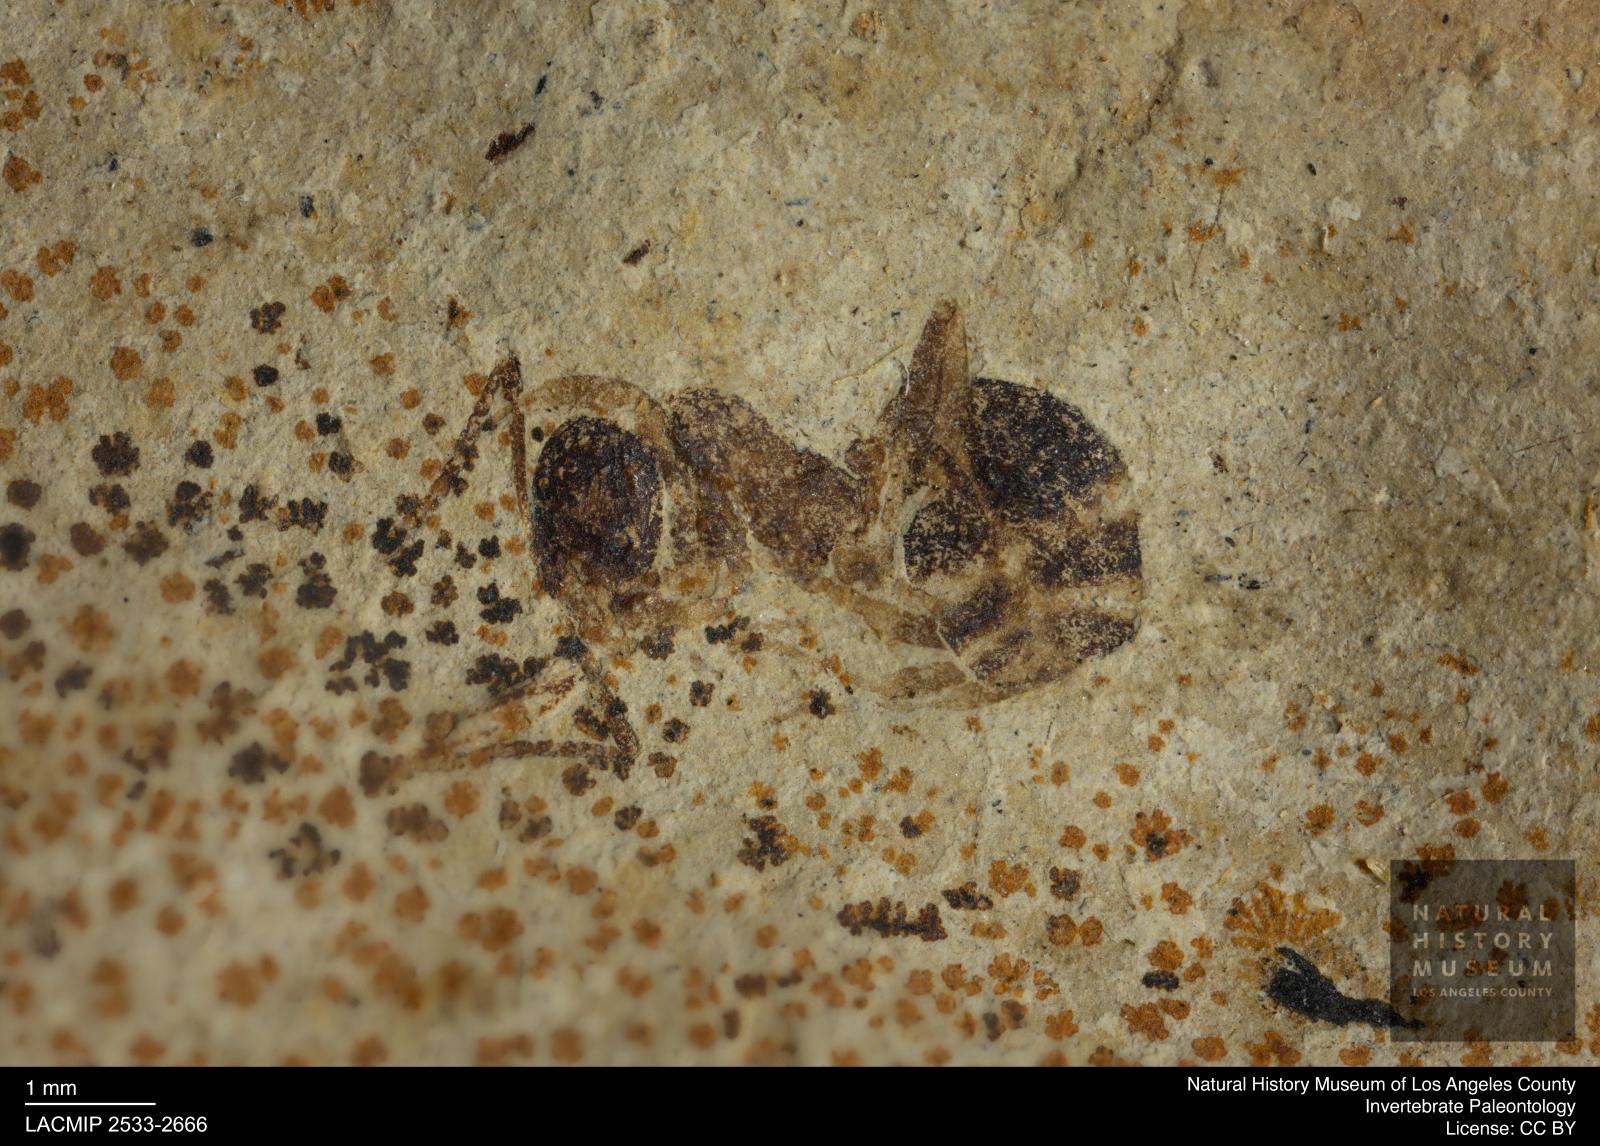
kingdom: Animalia
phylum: Arthropoda
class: Insecta
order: Hymenoptera
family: Formicidae
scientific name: Formicidae
